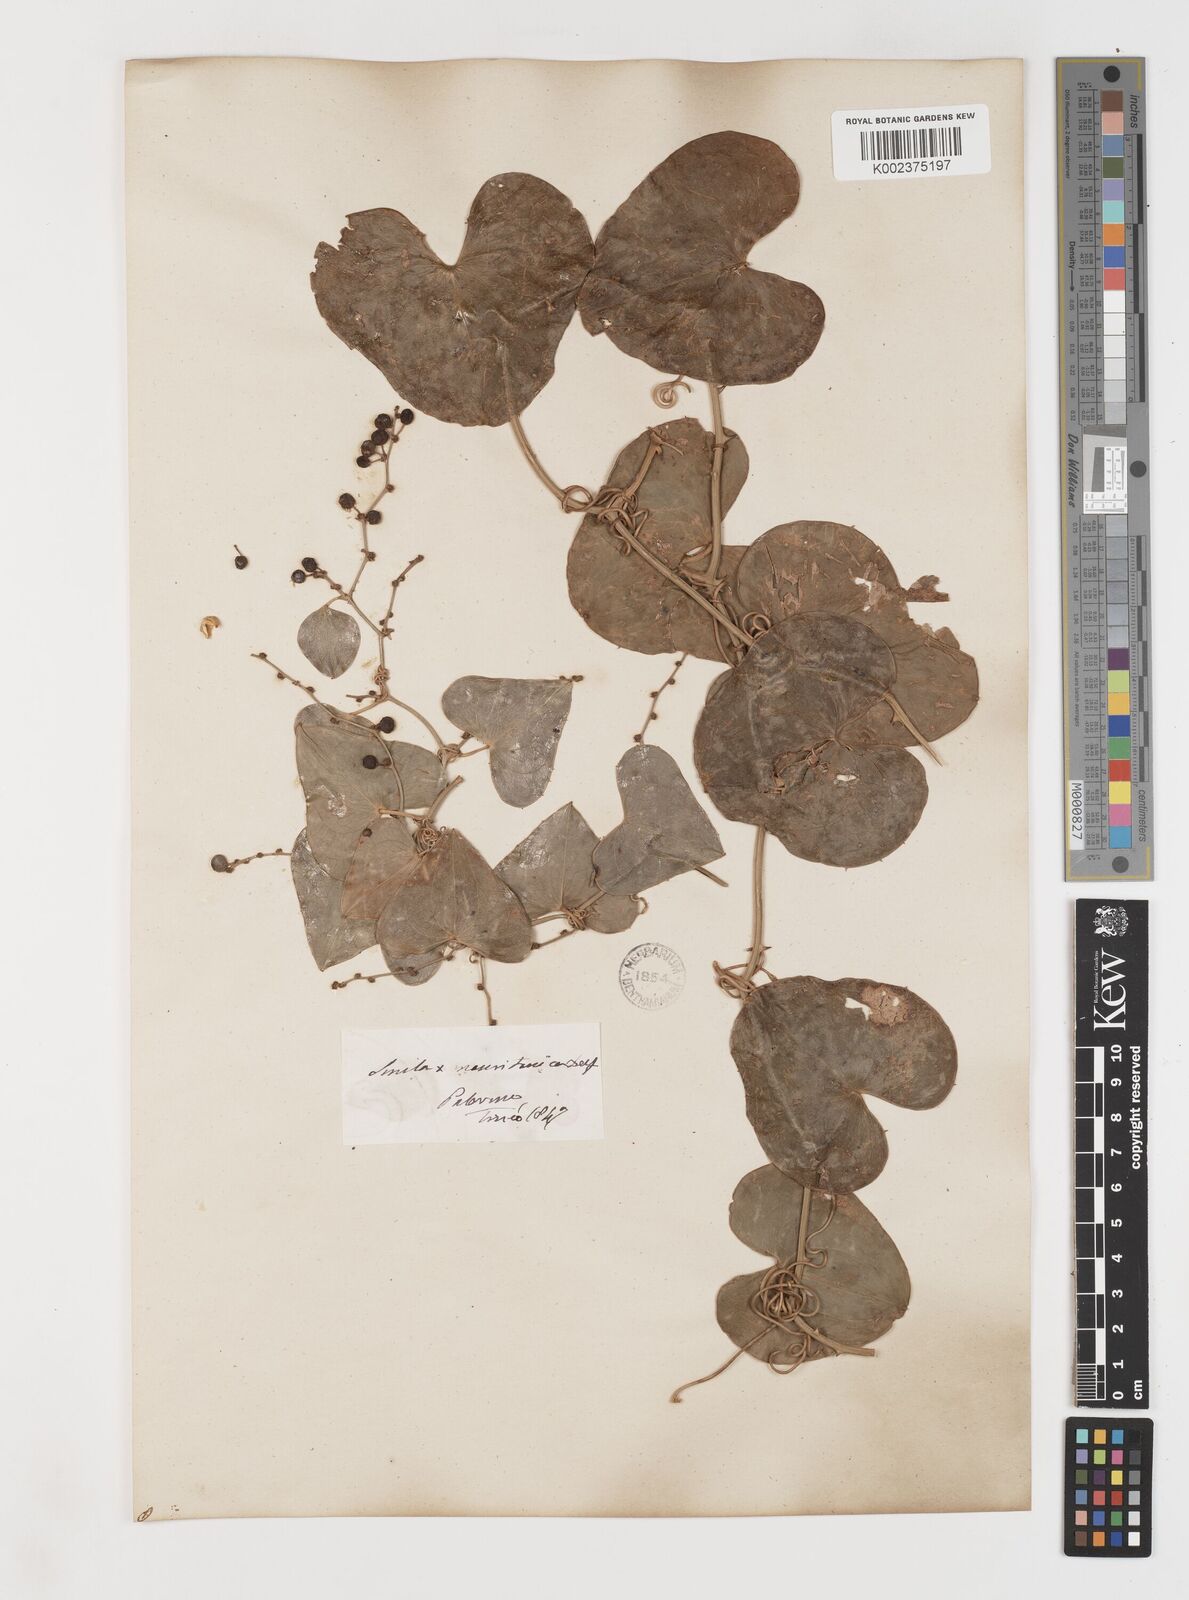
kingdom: Plantae
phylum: Tracheophyta
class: Liliopsida
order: Liliales
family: Smilacaceae
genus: Smilax
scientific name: Smilax aspera
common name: Common smilax
